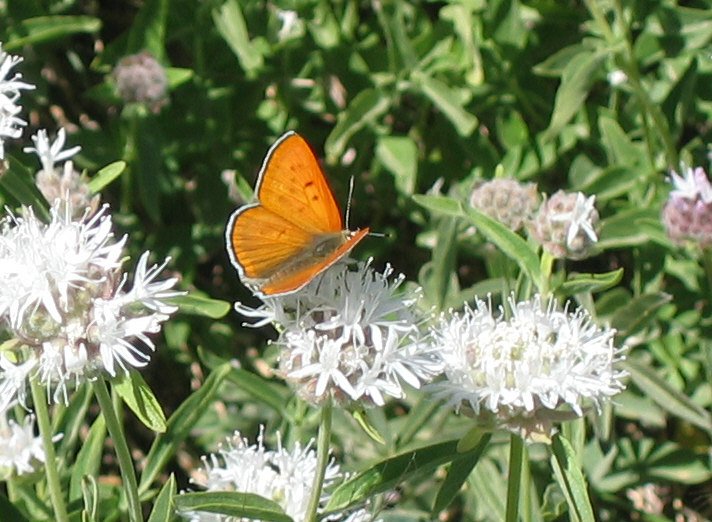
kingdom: Animalia
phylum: Arthropoda
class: Insecta
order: Lepidoptera
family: Sesiidae
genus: Sesia
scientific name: Sesia Lycaena rubidus
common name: Ruddy Copper
